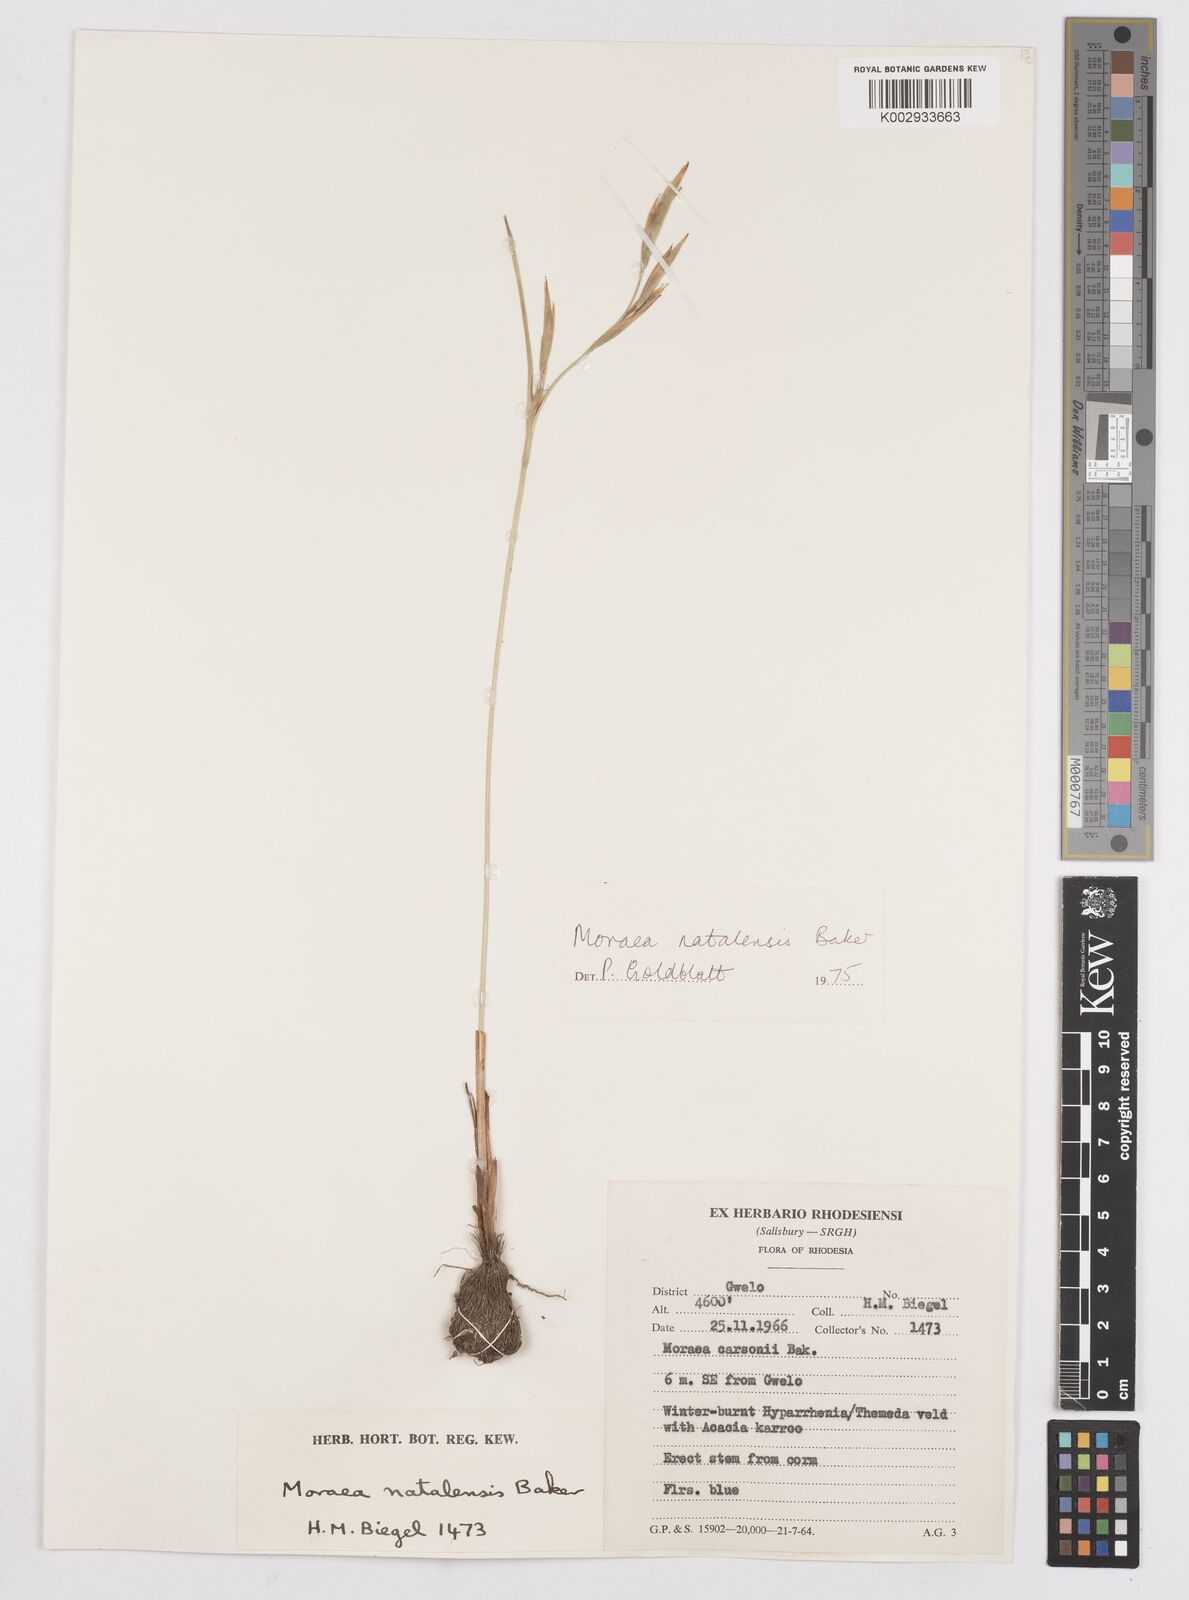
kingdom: Plantae
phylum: Tracheophyta
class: Liliopsida
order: Asparagales
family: Iridaceae
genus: Moraea
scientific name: Moraea natalensis
